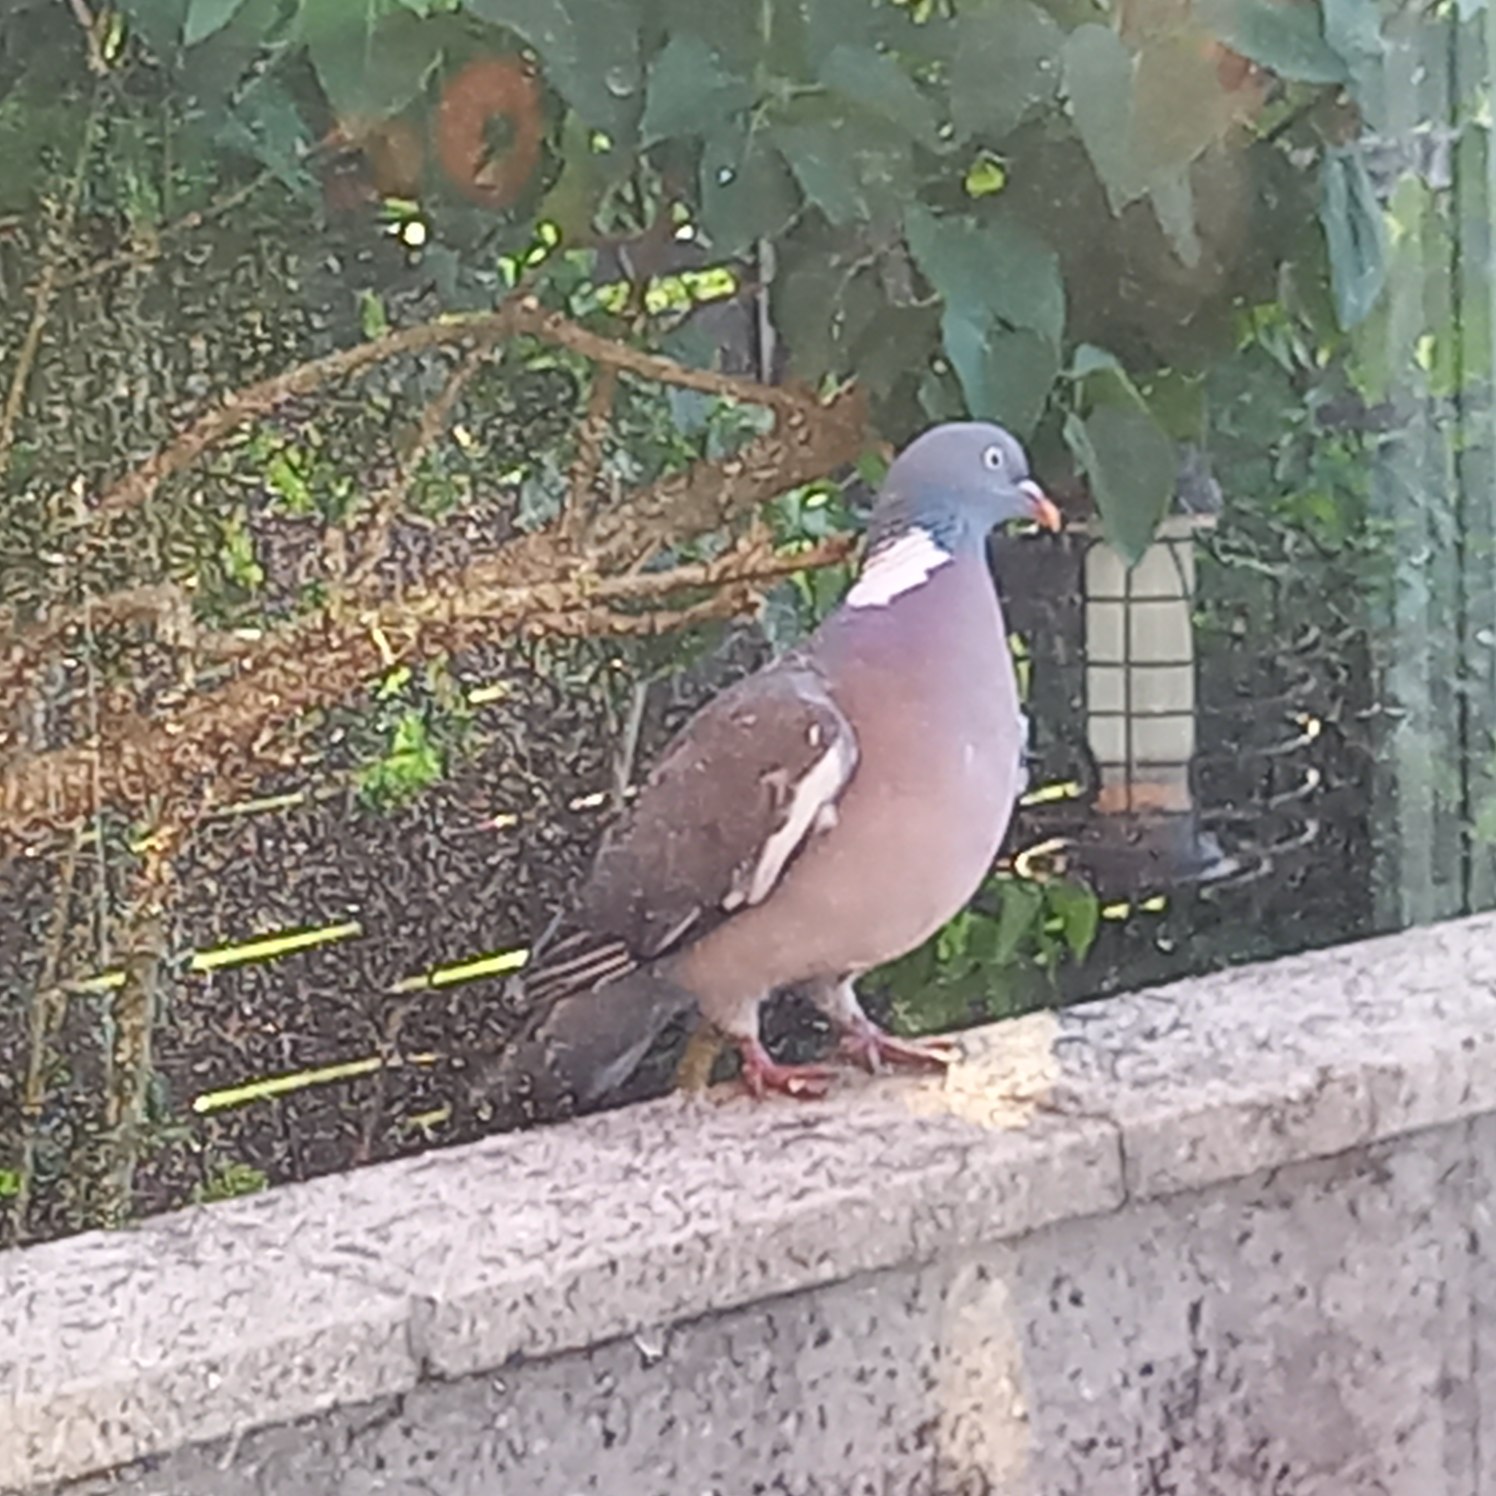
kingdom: Animalia
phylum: Chordata
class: Aves
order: Columbiformes
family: Columbidae
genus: Columba
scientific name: Columba palumbus
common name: Ringdue
